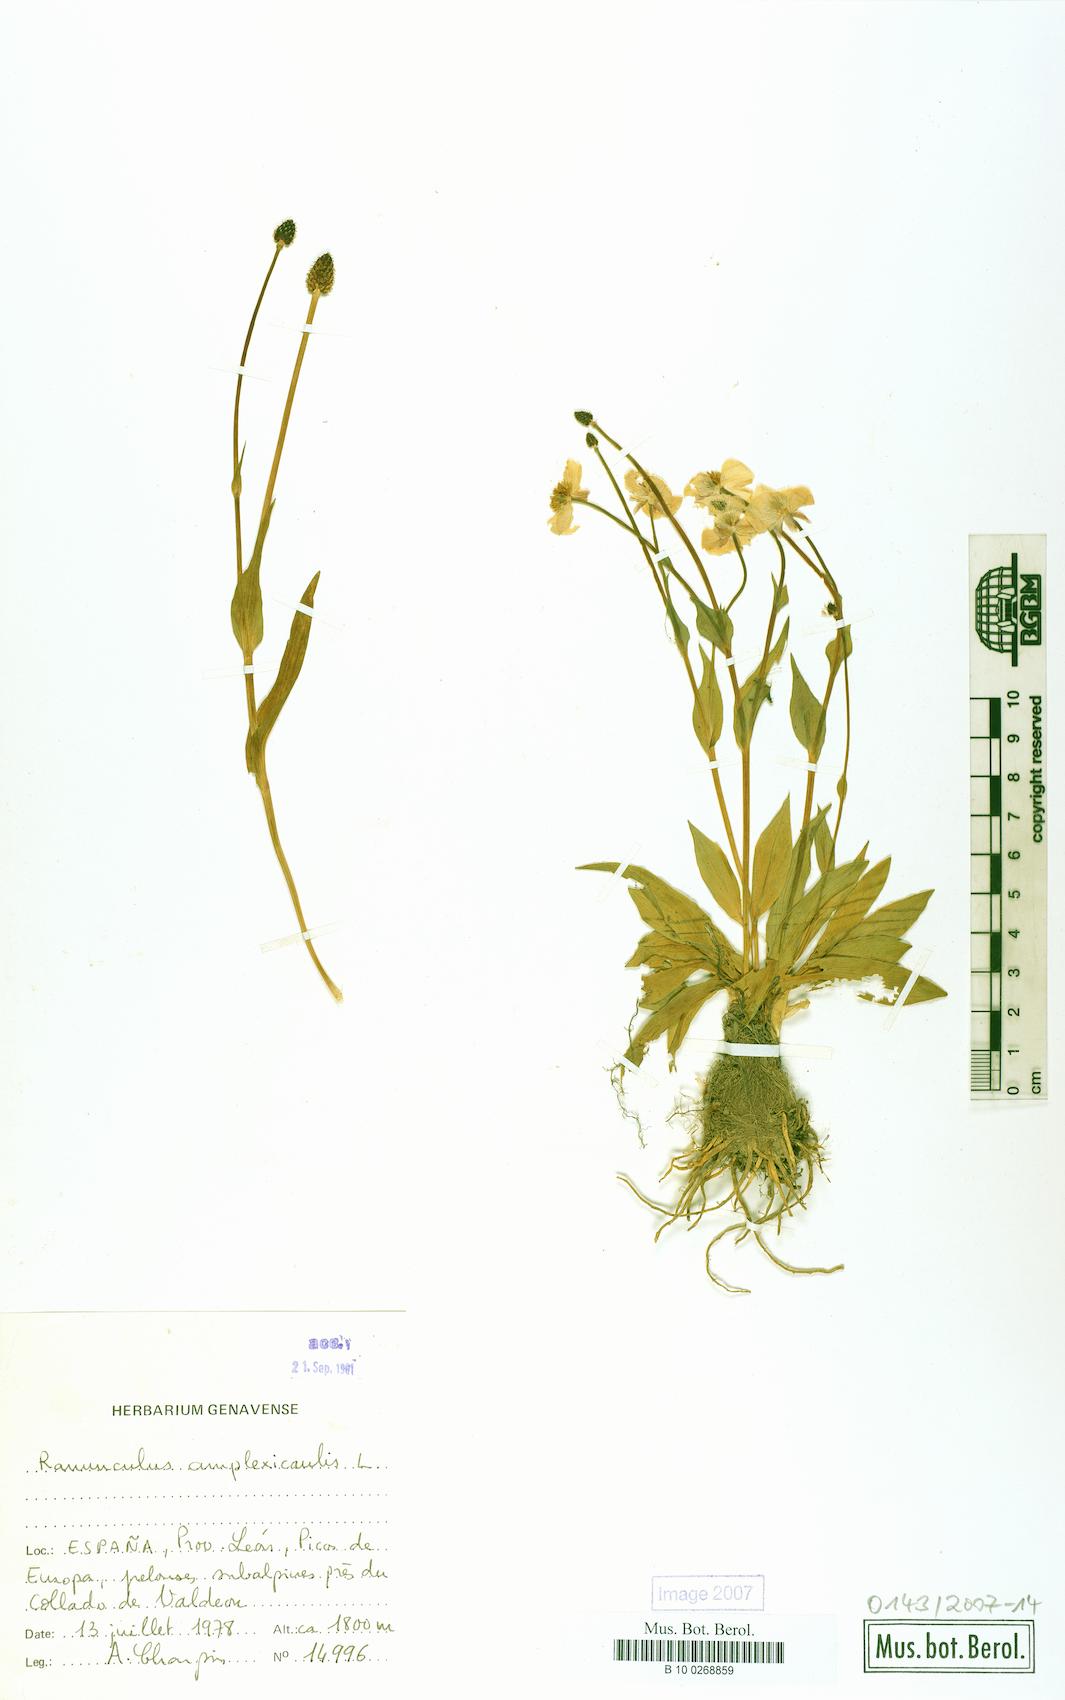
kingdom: Plantae
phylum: Tracheophyta
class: Magnoliopsida
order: Ranunculales
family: Ranunculaceae
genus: Ranunculus
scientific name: Ranunculus amplexicaulis
